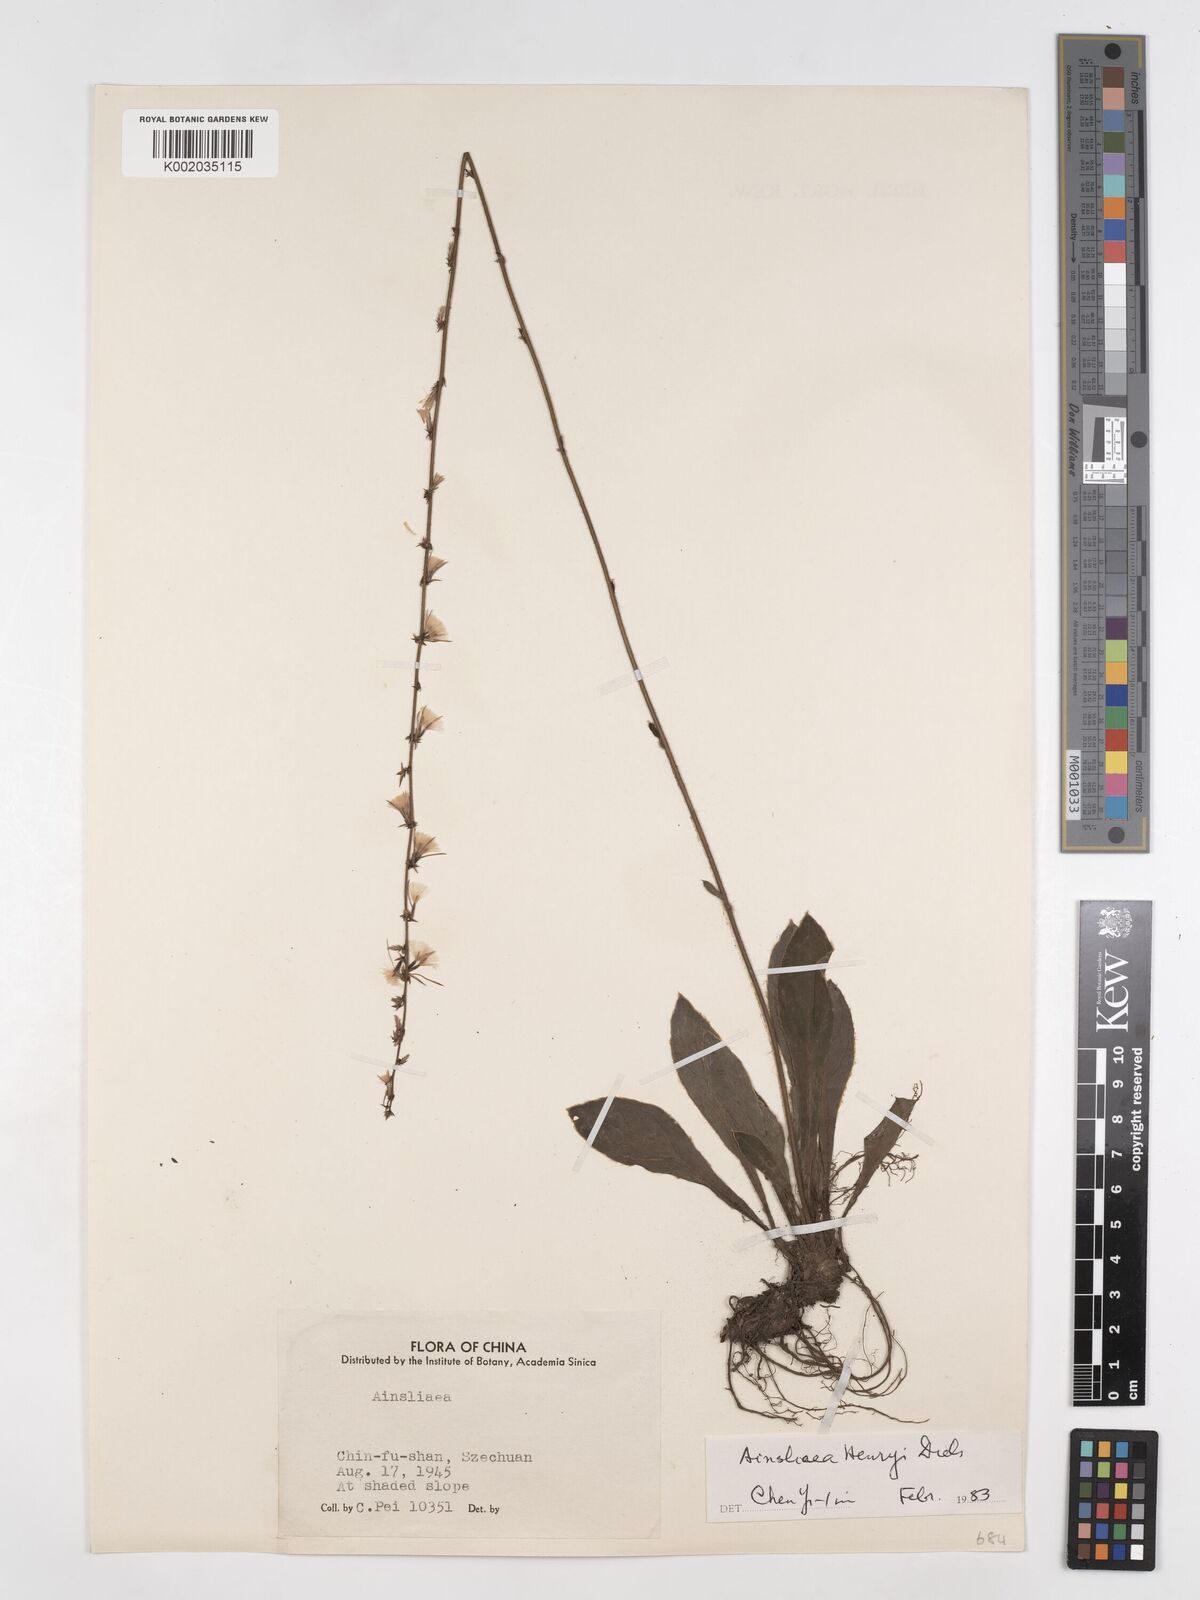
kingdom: Plantae
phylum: Tracheophyta
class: Magnoliopsida
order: Asterales
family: Asteraceae
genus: Ainsliaea
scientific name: Ainsliaea henryi
